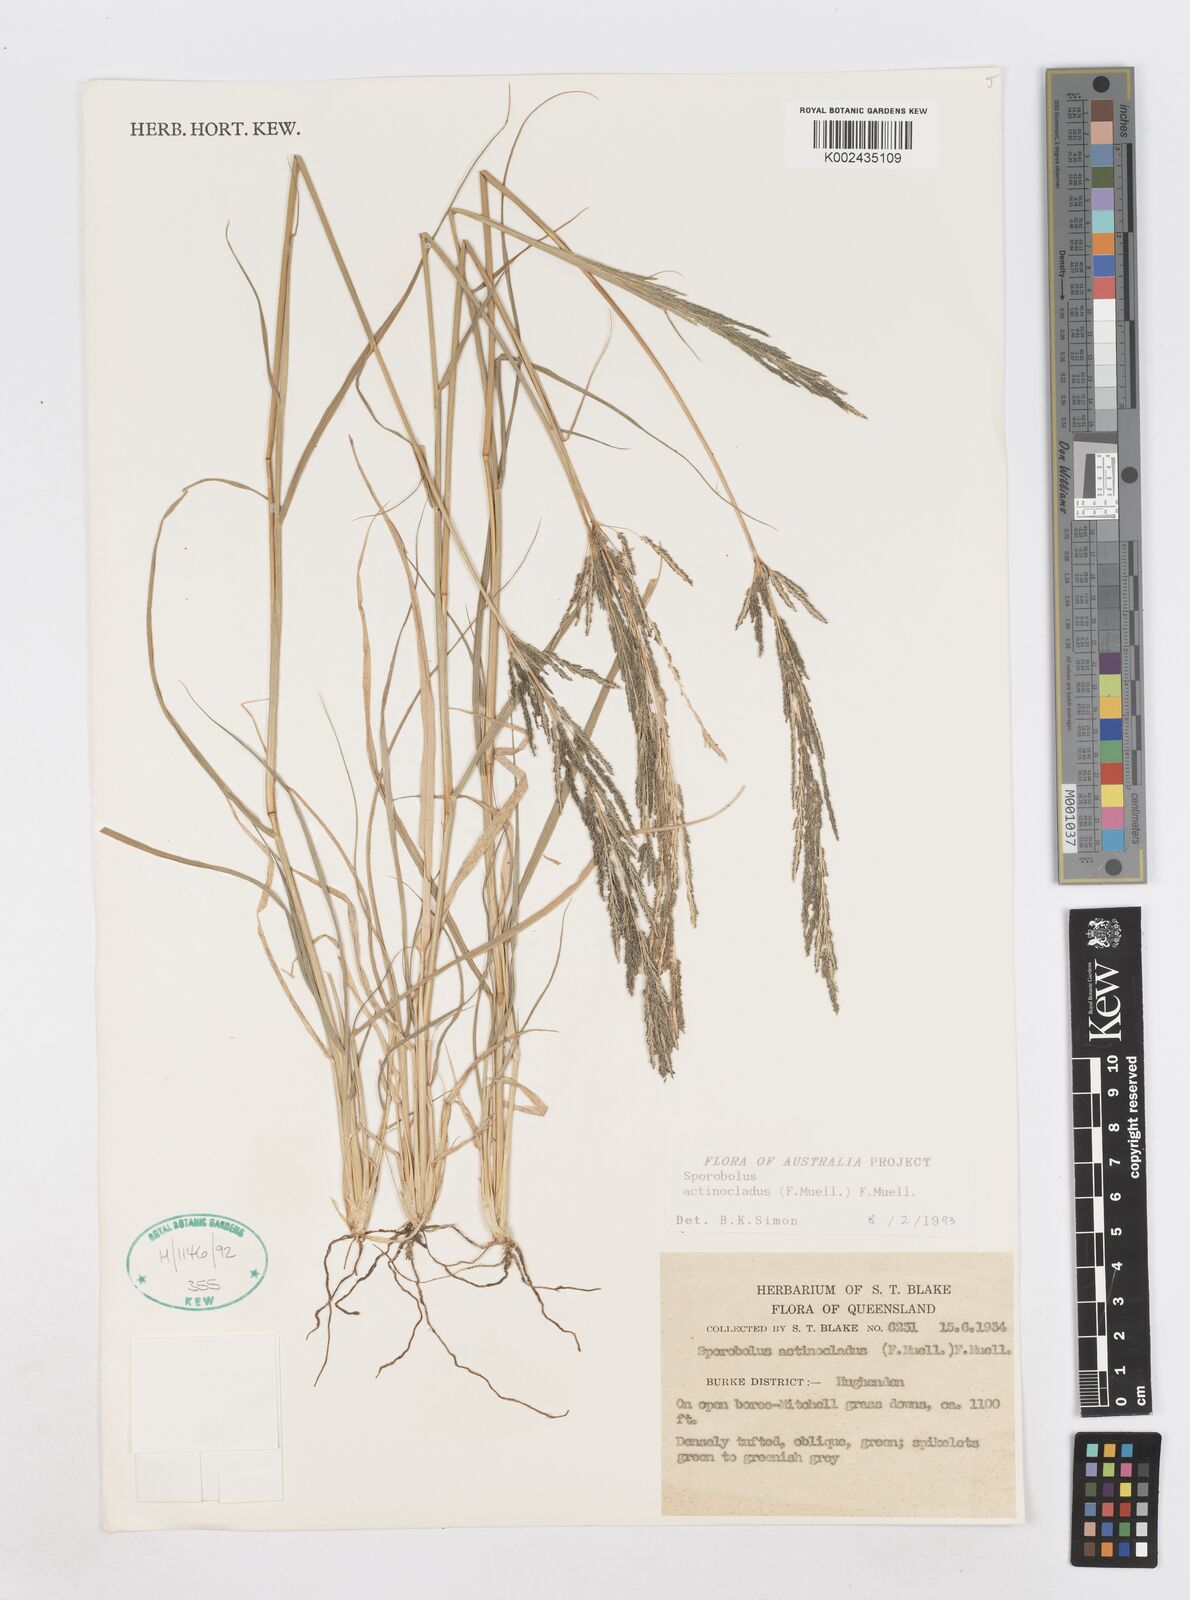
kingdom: Plantae
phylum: Tracheophyta
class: Liliopsida
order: Poales
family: Poaceae
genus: Sporobolus
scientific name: Sporobolus actinocladus
